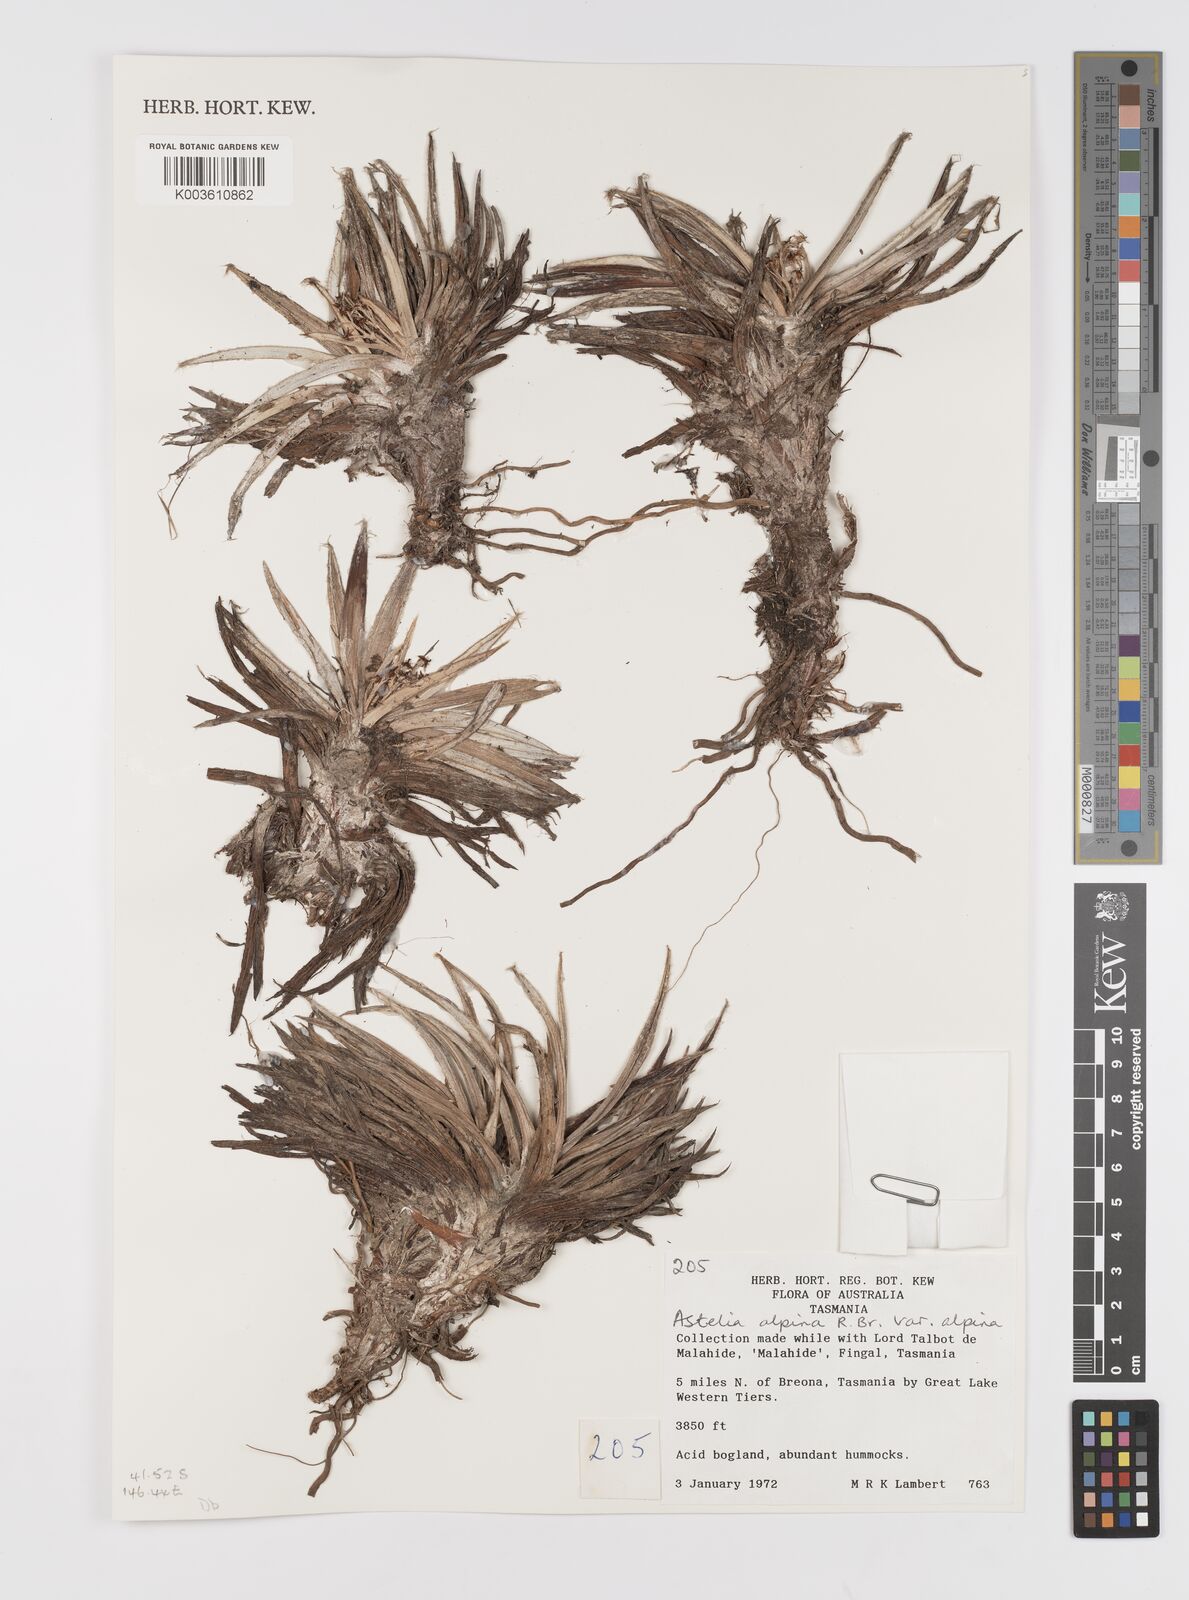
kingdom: Plantae
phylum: Tracheophyta
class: Liliopsida
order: Asparagales
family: Asteliaceae
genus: Astelia
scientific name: Astelia alpina
